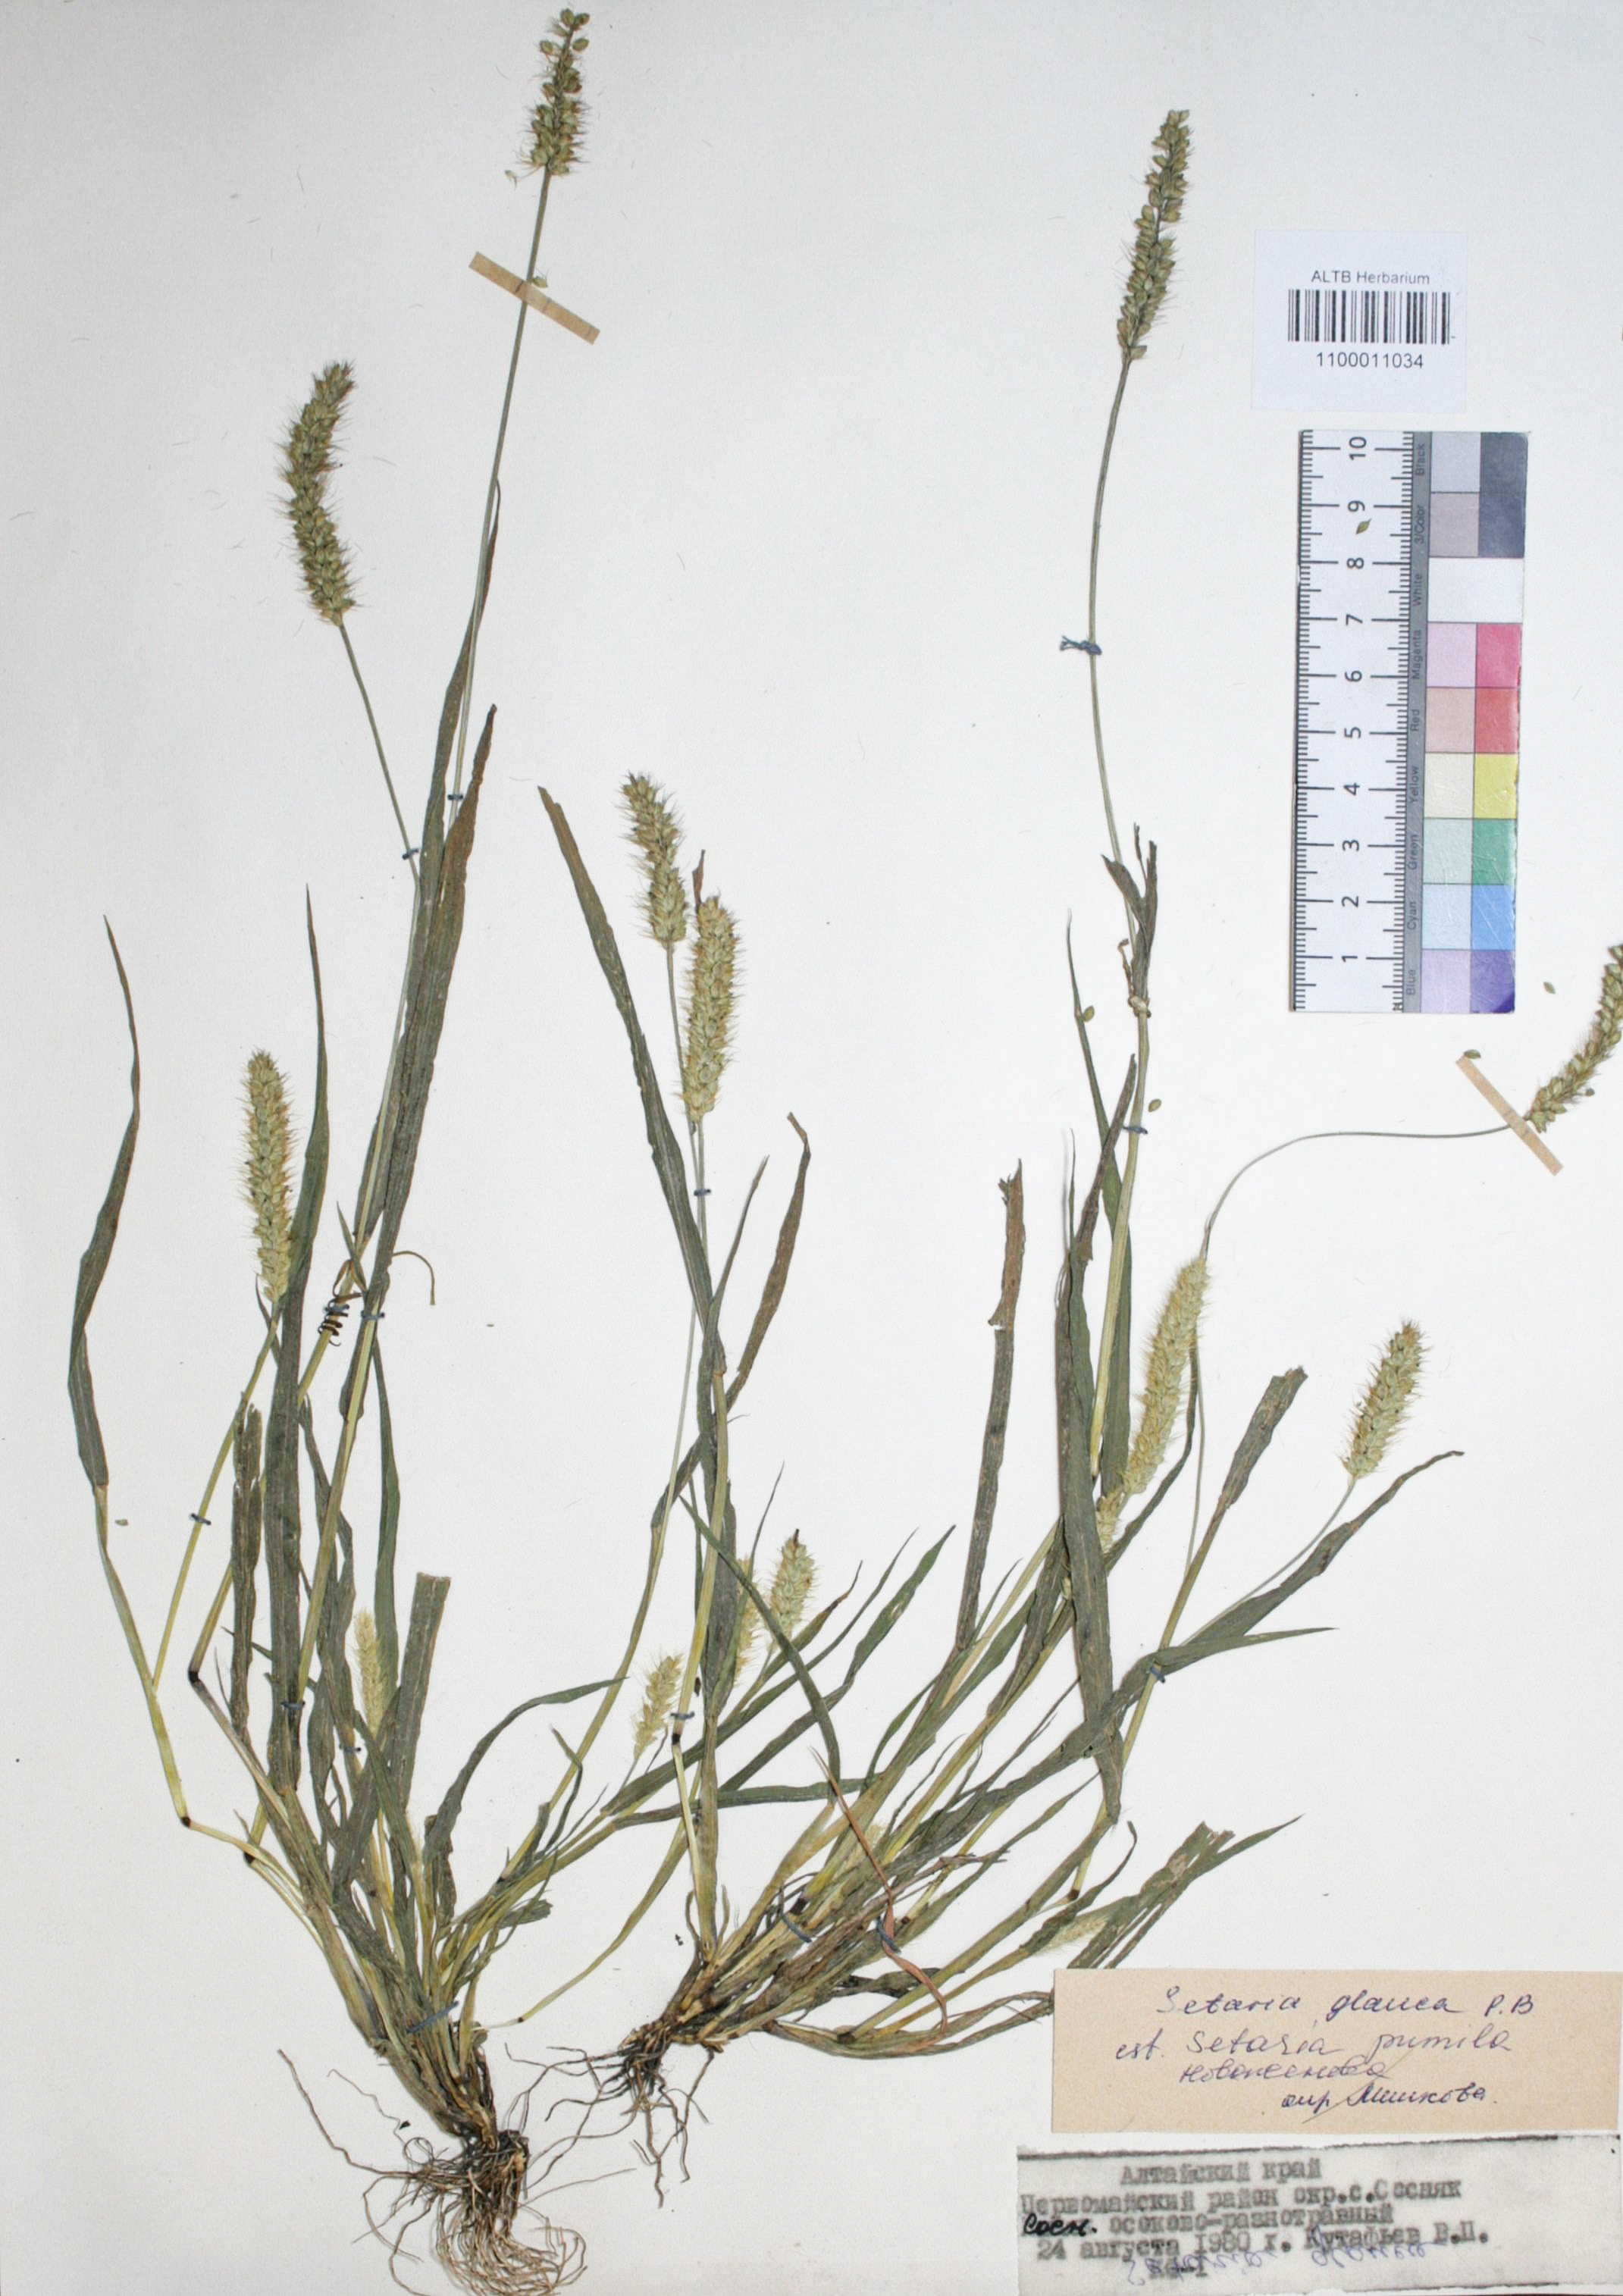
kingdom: Plantae
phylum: Tracheophyta
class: Liliopsida
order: Poales
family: Poaceae
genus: Setaria
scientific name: Setaria pumila
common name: Yellow bristle-grass
